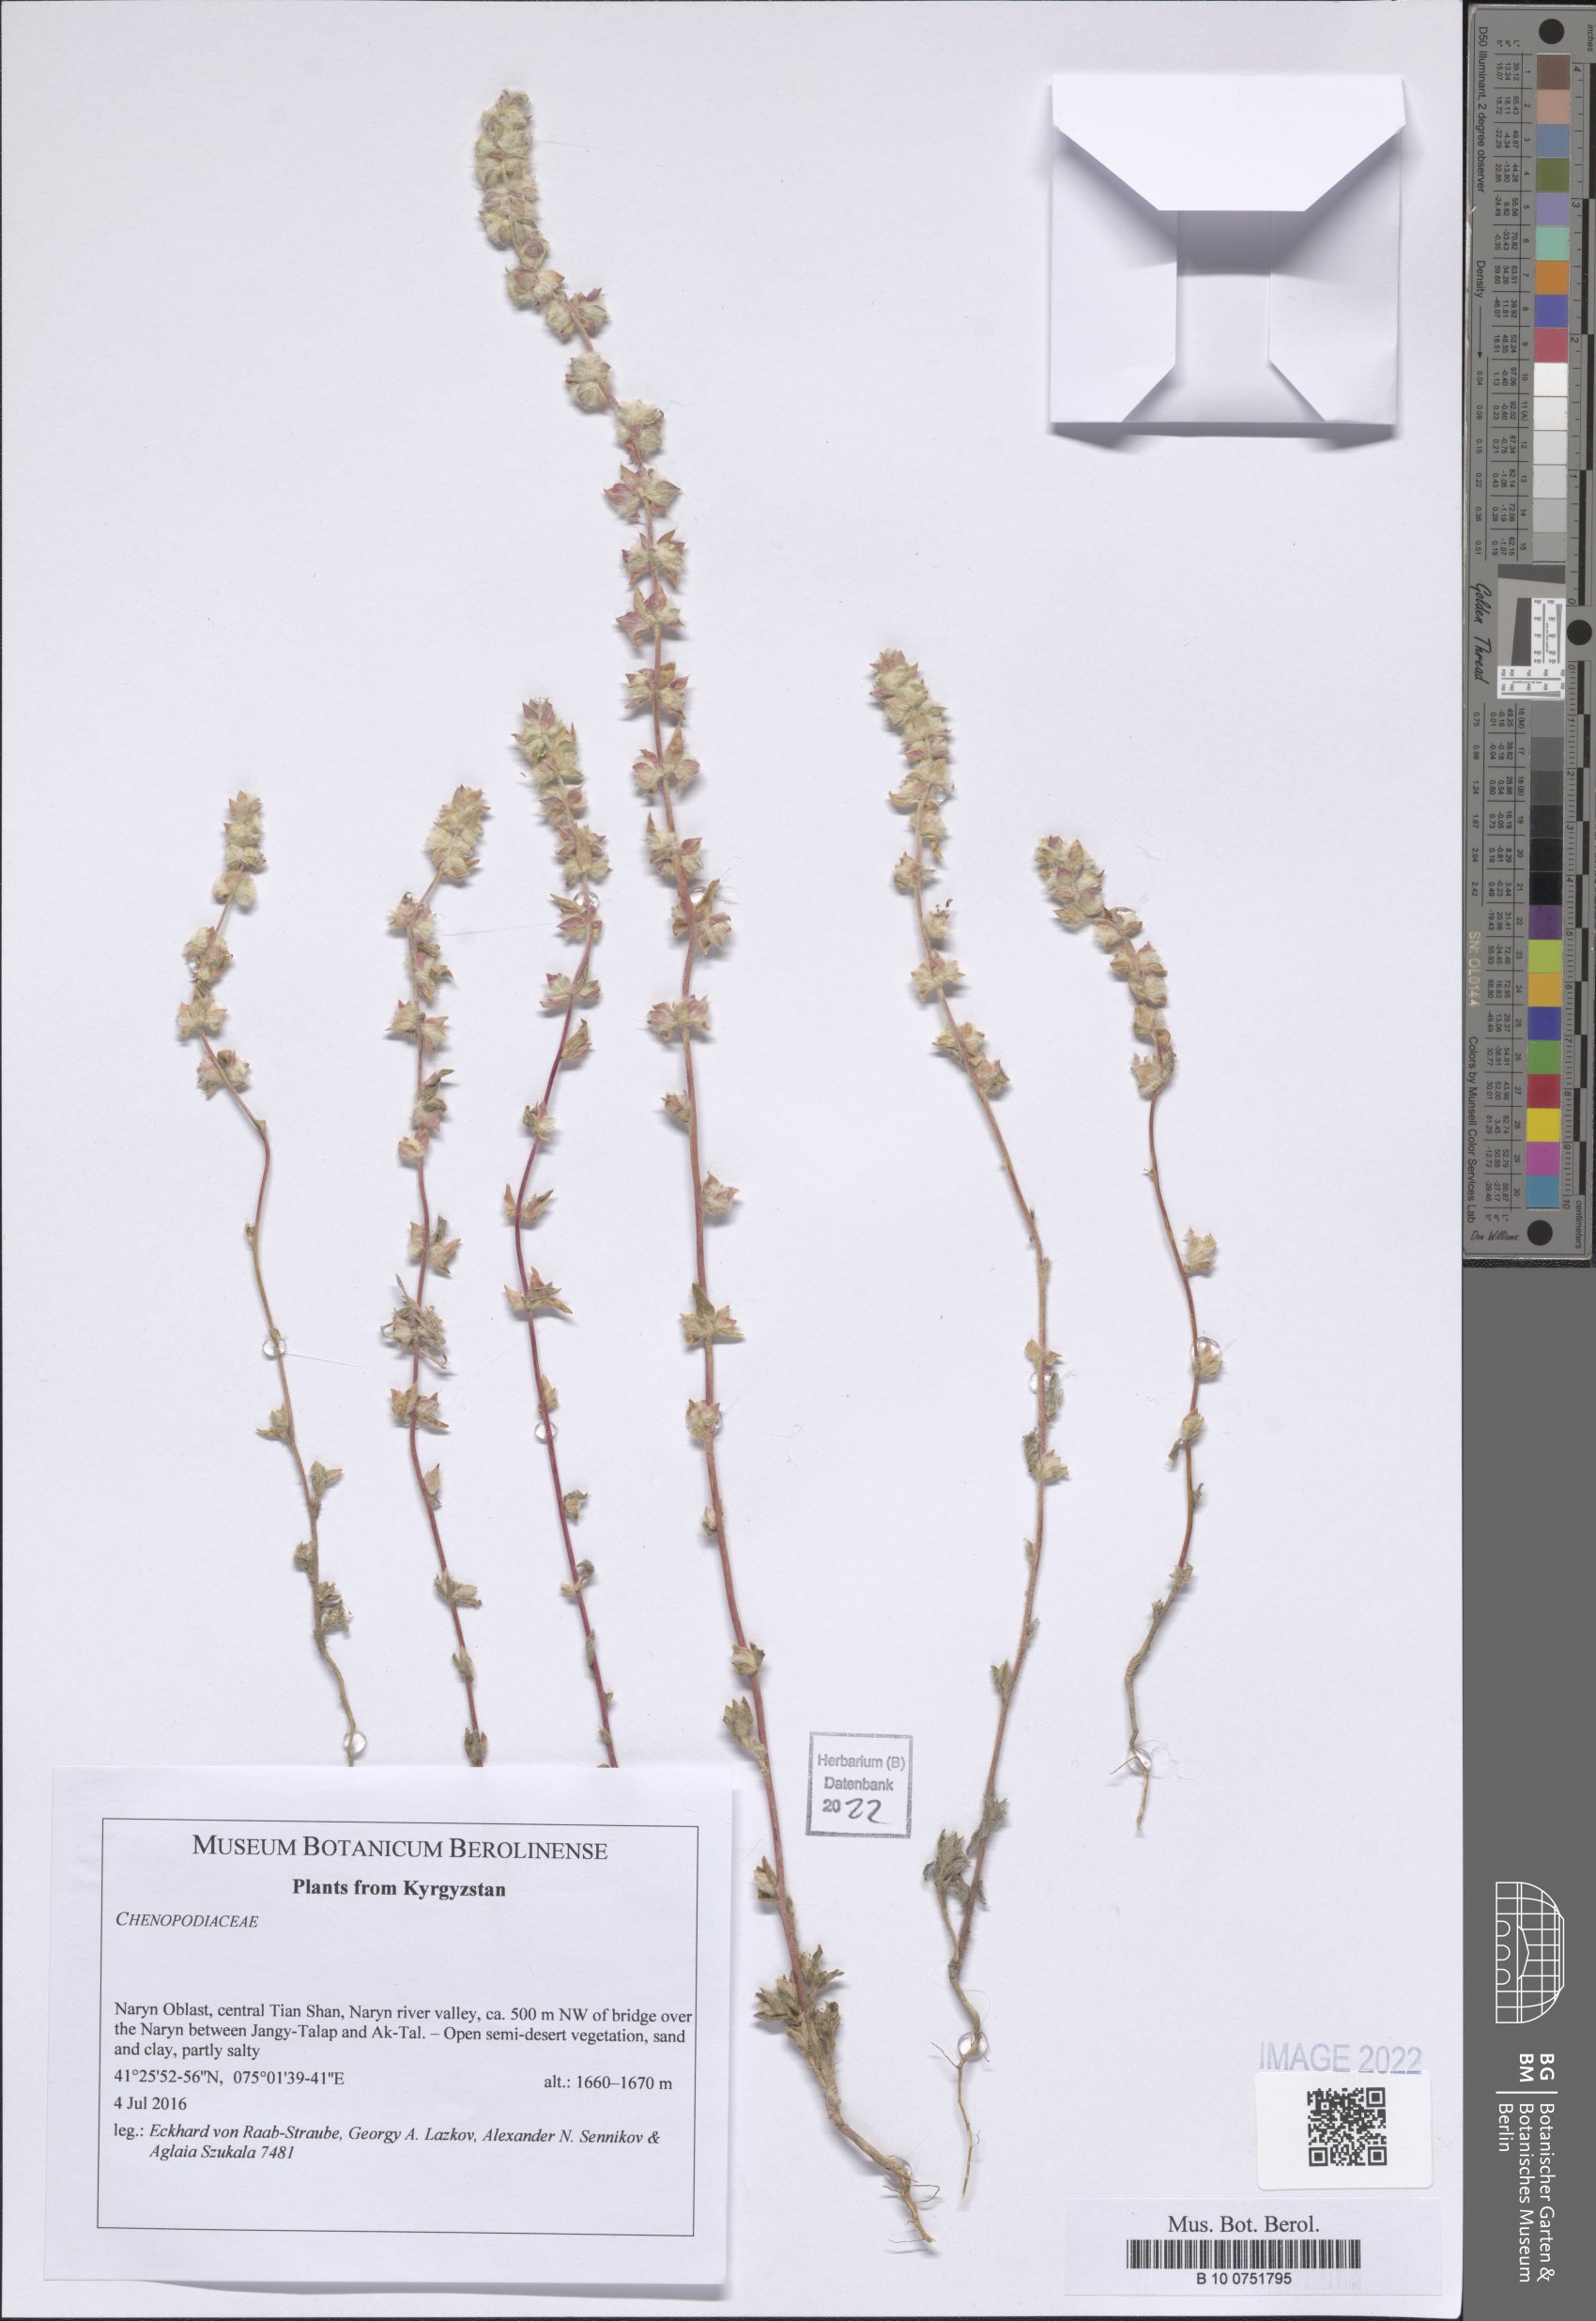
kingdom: Plantae
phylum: Tracheophyta
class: Magnoliopsida
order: Caryophyllales
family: Amaranthaceae
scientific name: Amaranthaceae
